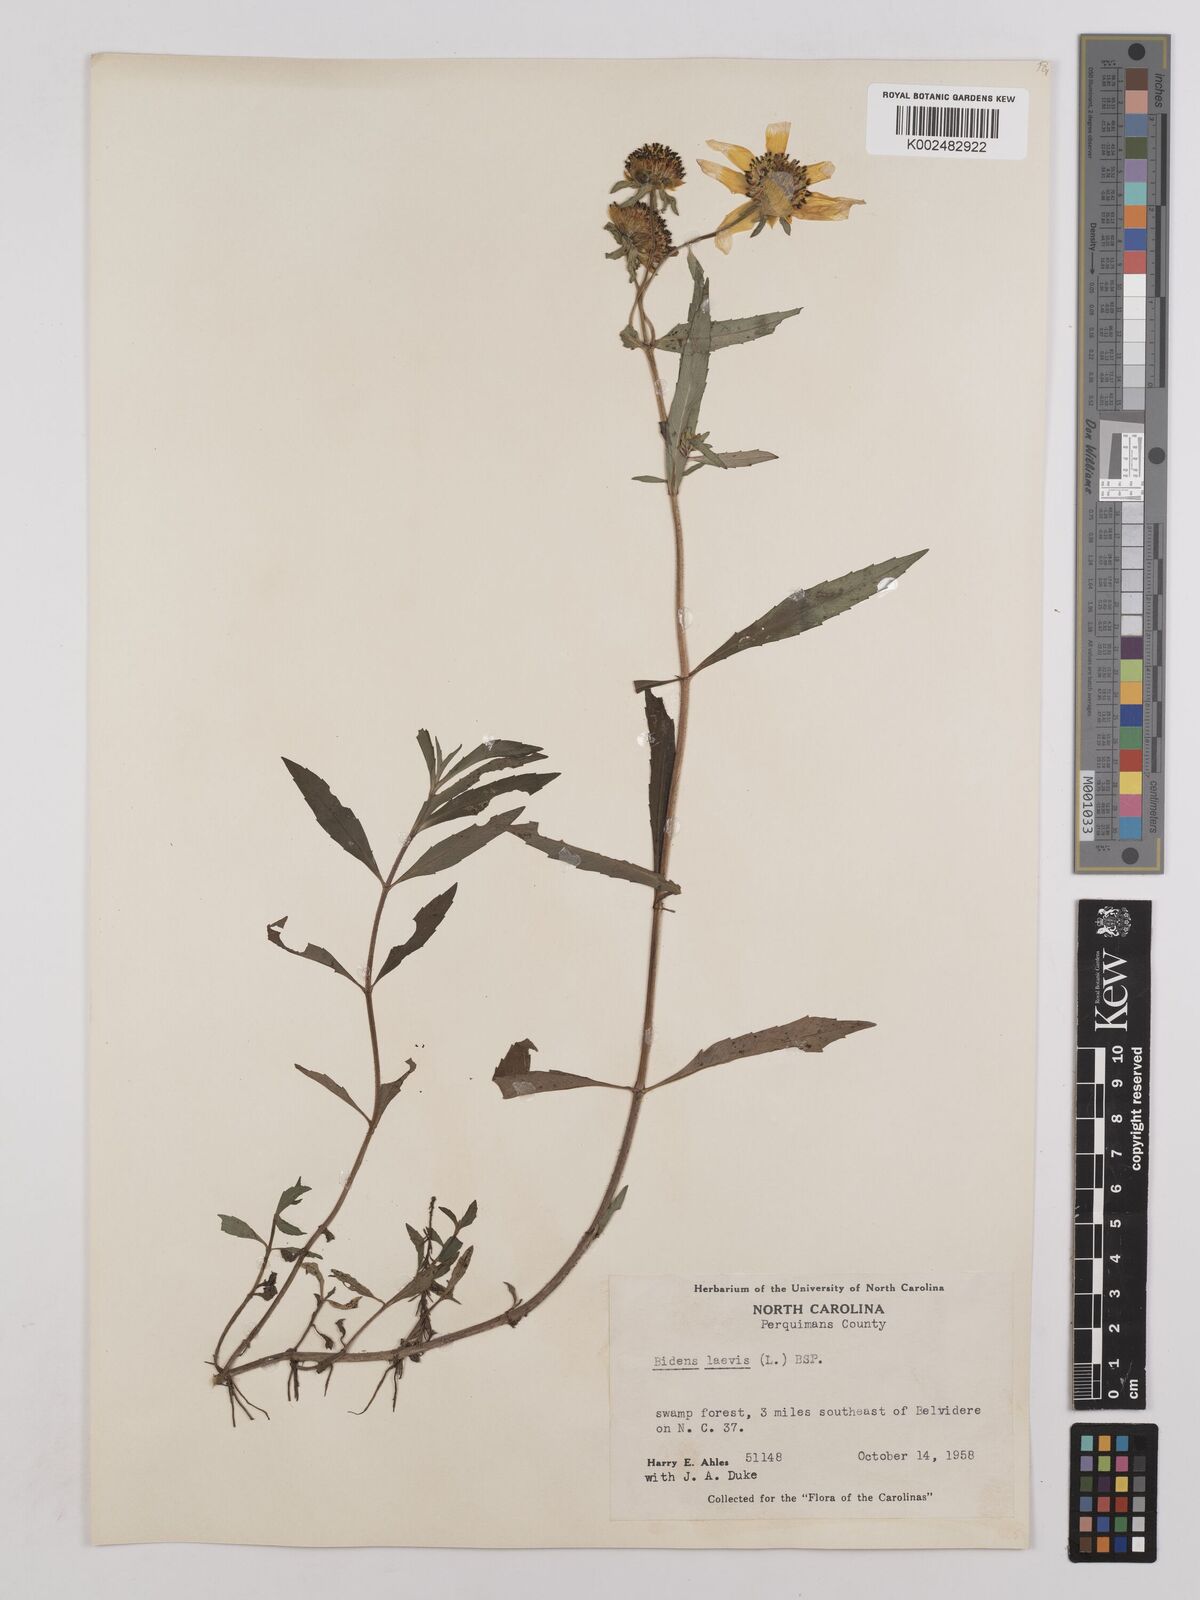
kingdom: Plantae
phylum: Tracheophyta
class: Magnoliopsida
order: Asterales
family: Asteraceae
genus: Bidens
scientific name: Bidens laevis
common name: Larger bur-marigold
